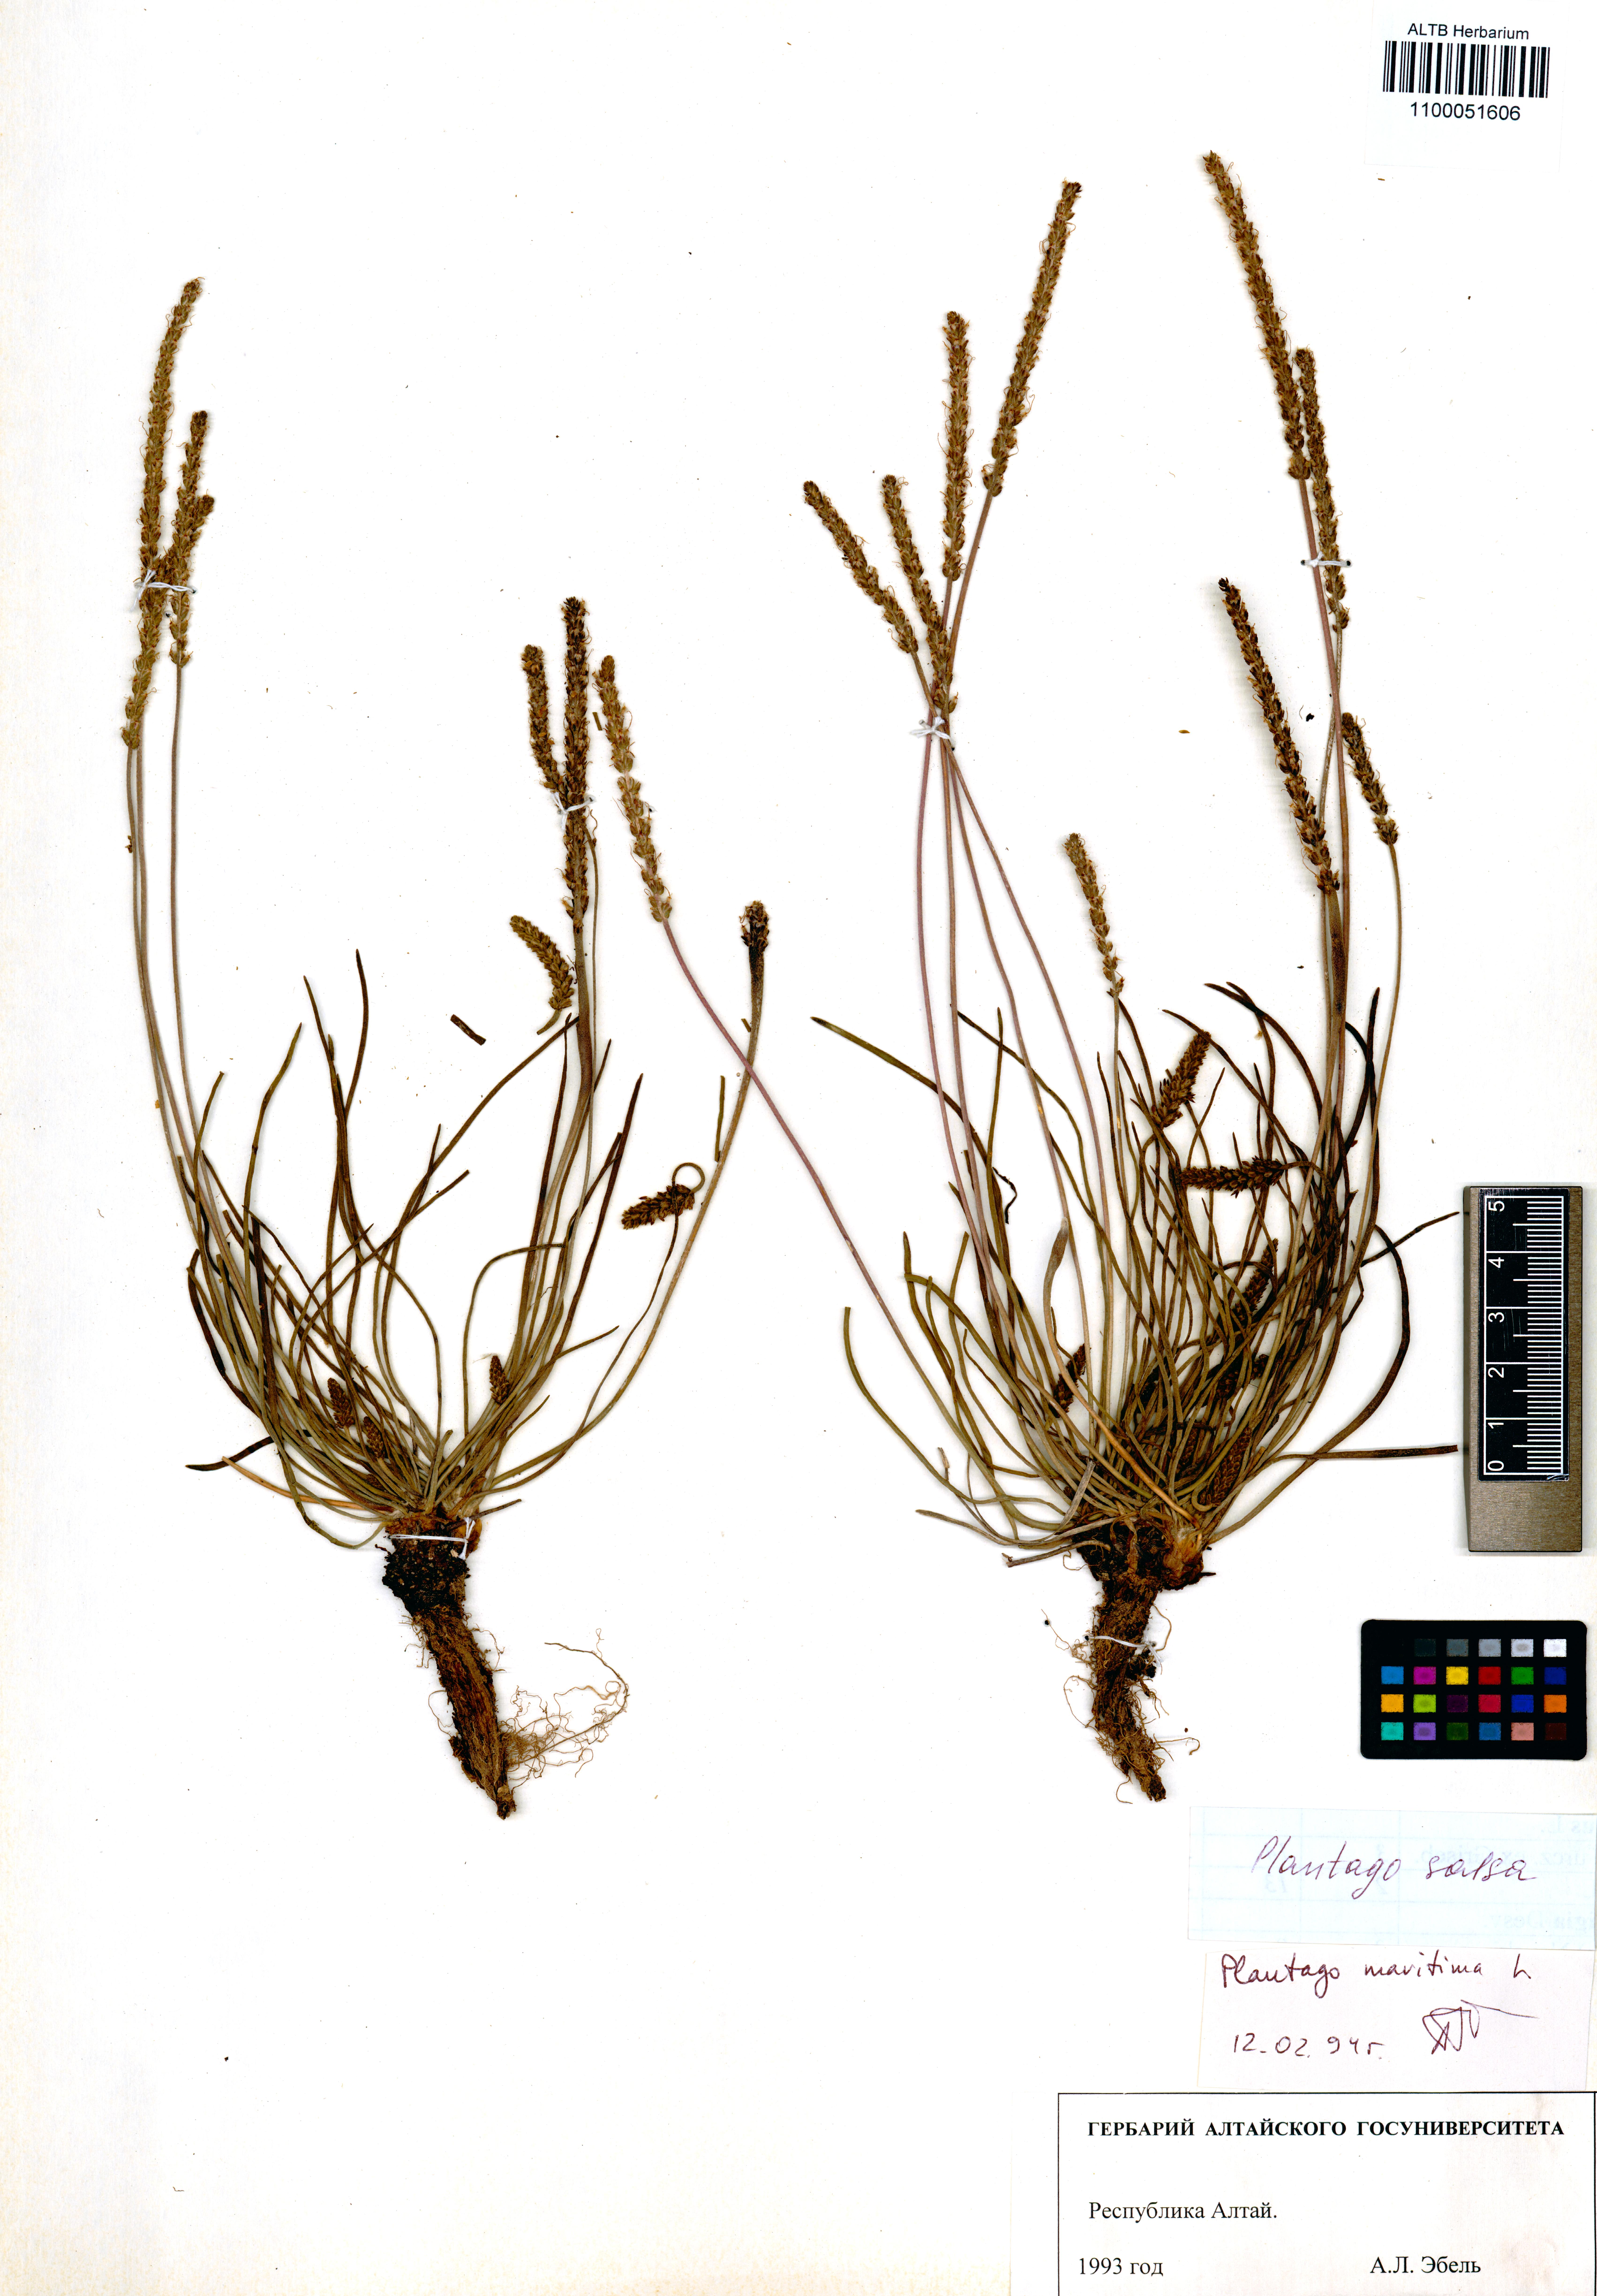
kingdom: Plantae
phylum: Tracheophyta
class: Magnoliopsida
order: Lamiales
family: Plantaginaceae
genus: Plantago
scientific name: Plantago salsa
